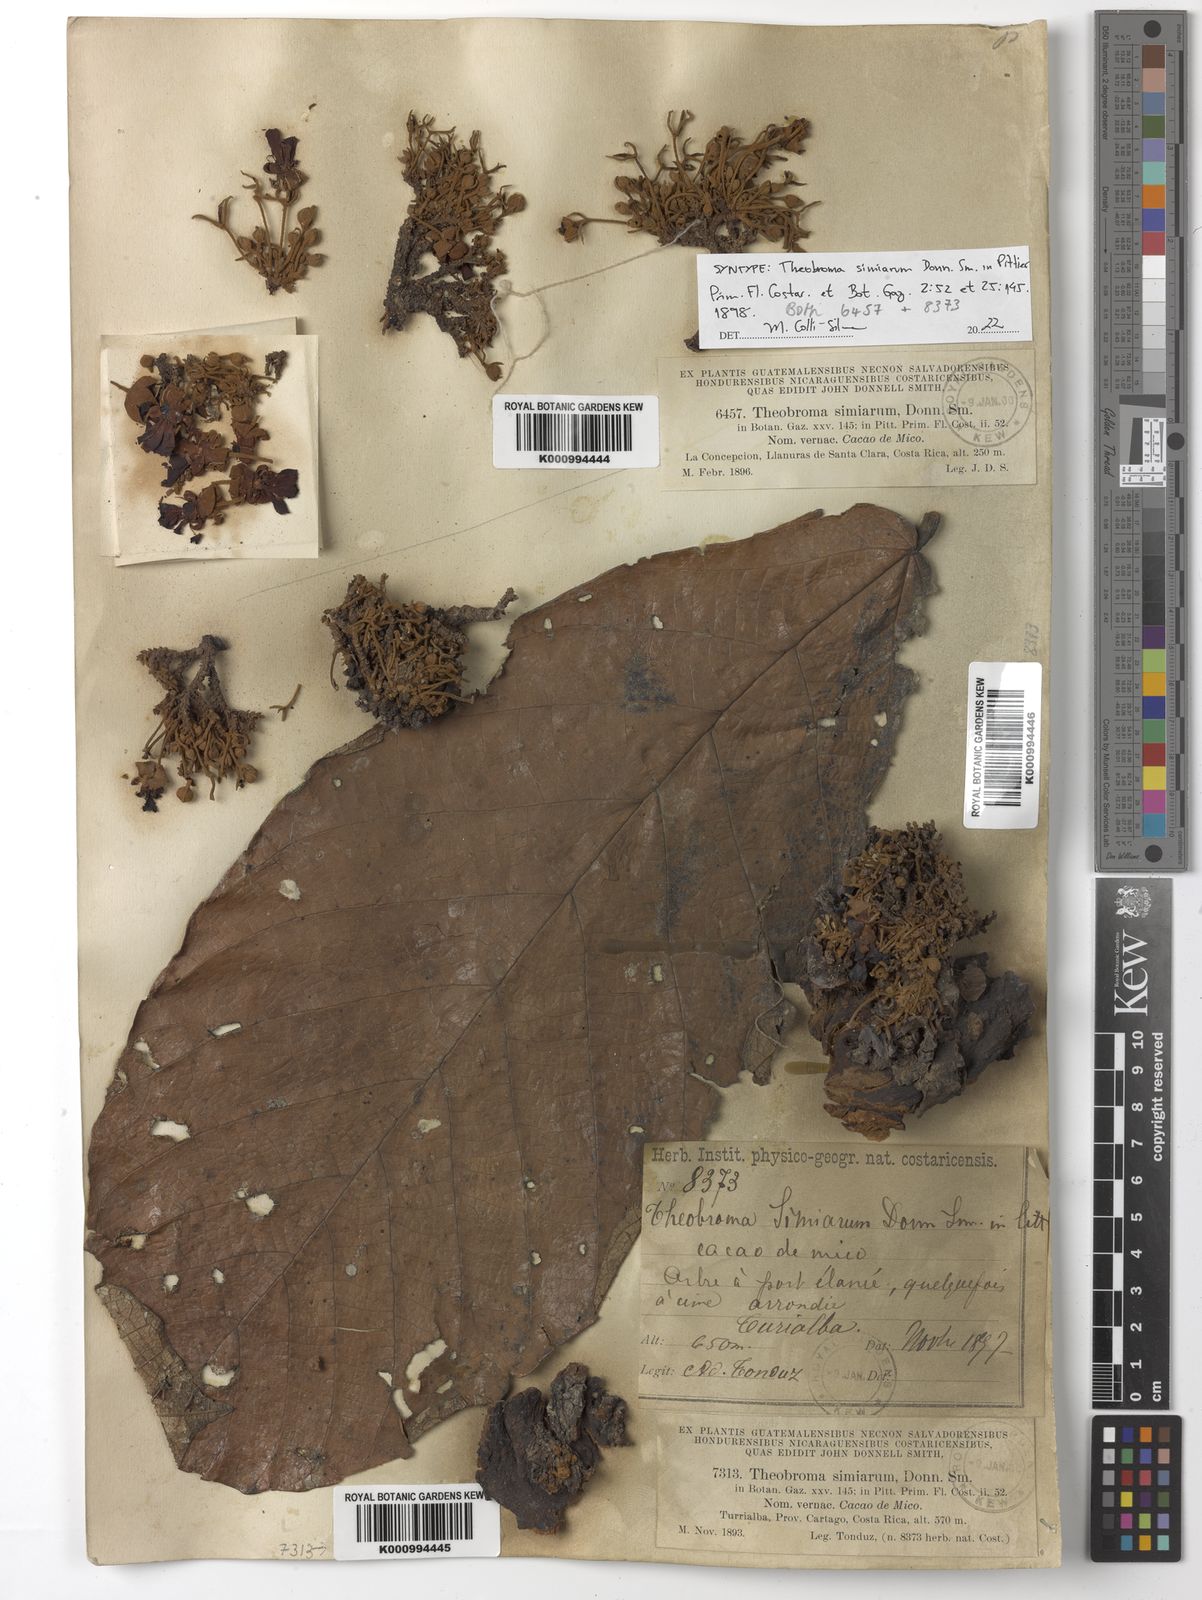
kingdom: Plantae
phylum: Tracheophyta
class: Magnoliopsida
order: Malvales
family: Malvaceae
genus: Theobroma
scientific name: Theobroma simiarum
